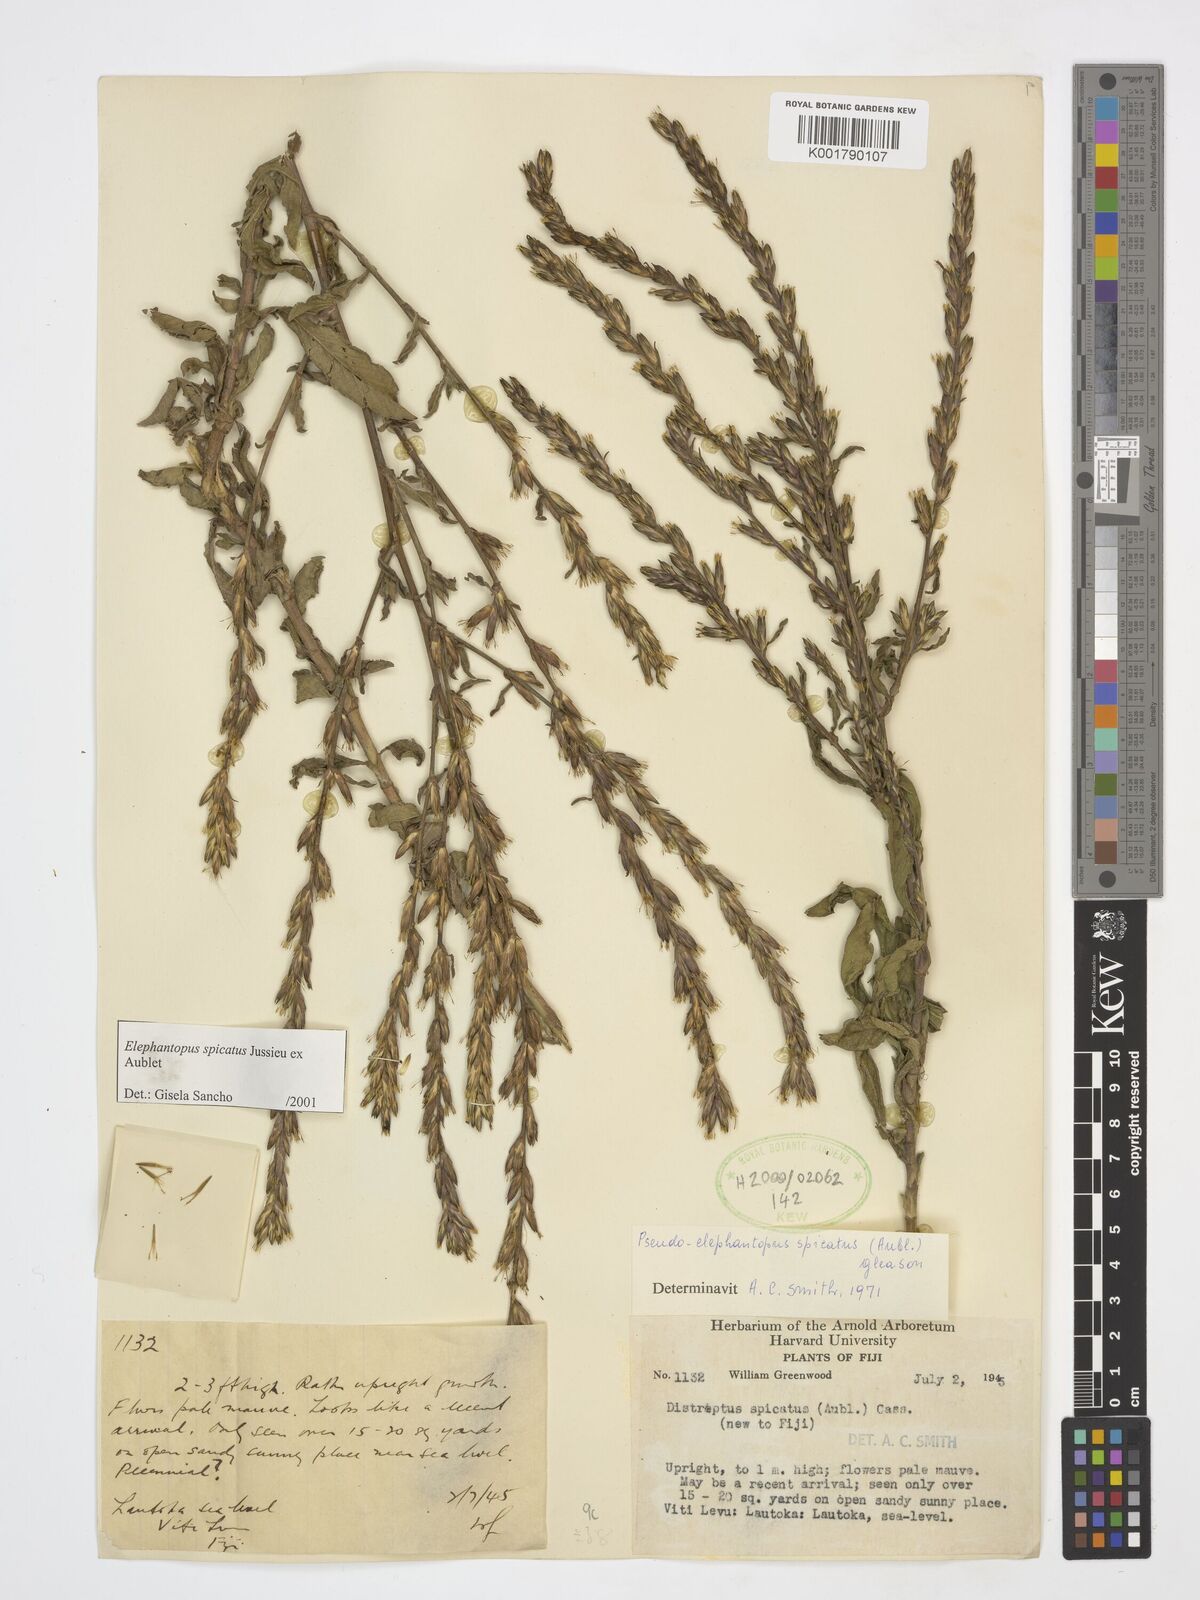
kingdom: Plantae
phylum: Tracheophyta
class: Magnoliopsida
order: Asterales
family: Asteraceae
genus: Pseudelephantopus
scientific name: Pseudelephantopus spicatus
